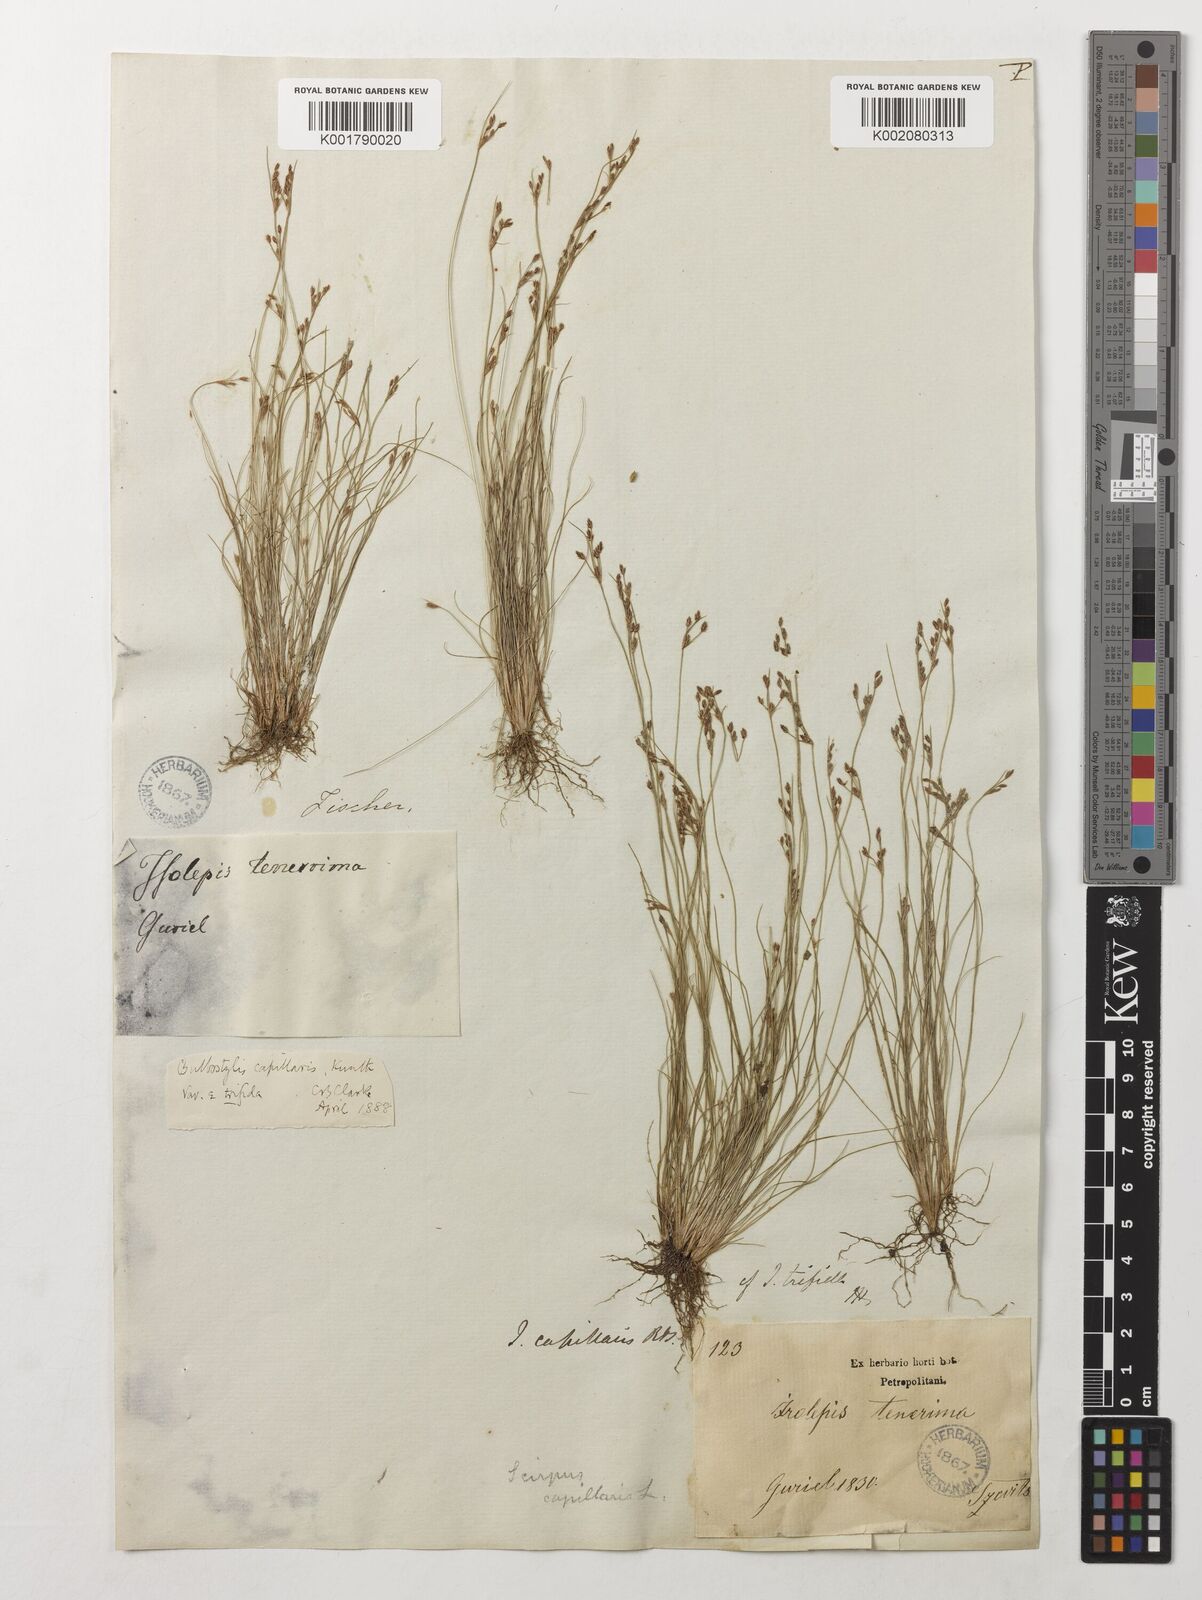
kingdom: Plantae
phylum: Tracheophyta
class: Liliopsida
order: Poales
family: Cyperaceae
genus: Bulbostylis
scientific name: Bulbostylis densa
